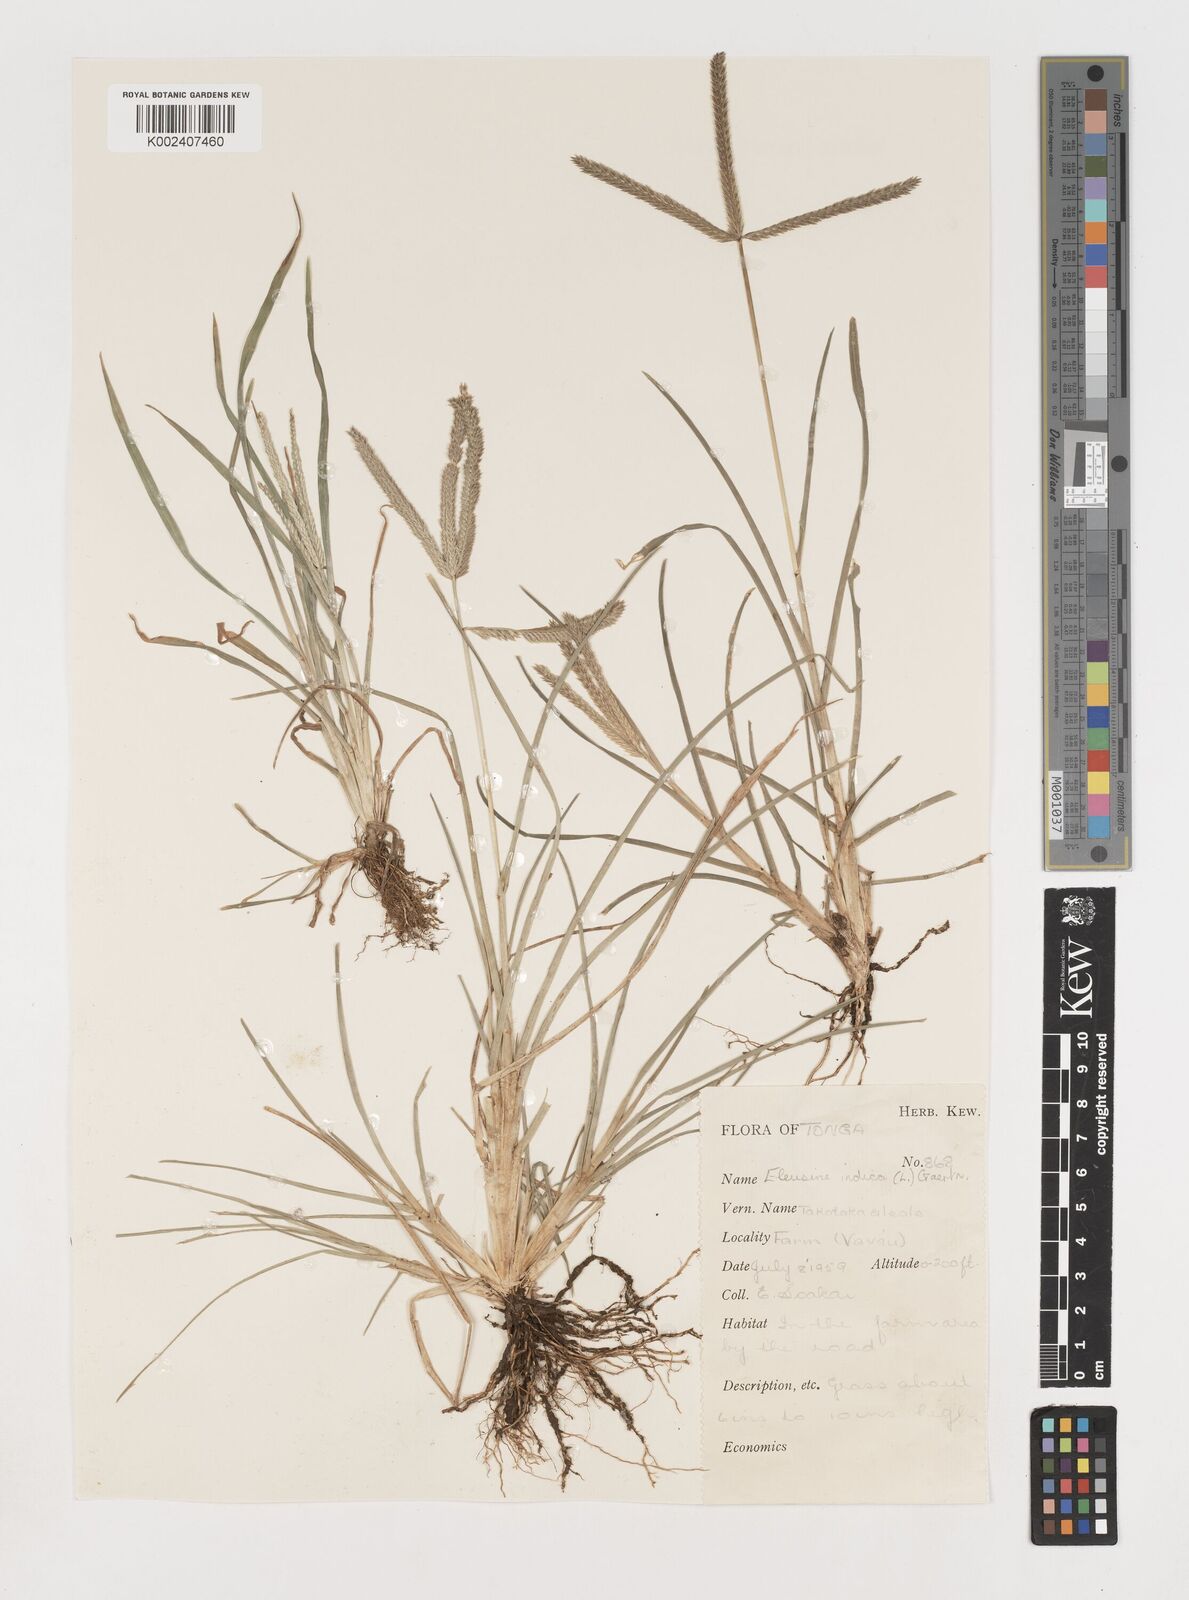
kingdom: Plantae
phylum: Tracheophyta
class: Liliopsida
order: Poales
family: Poaceae
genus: Eleusine
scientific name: Eleusine indica
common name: Yard-grass
